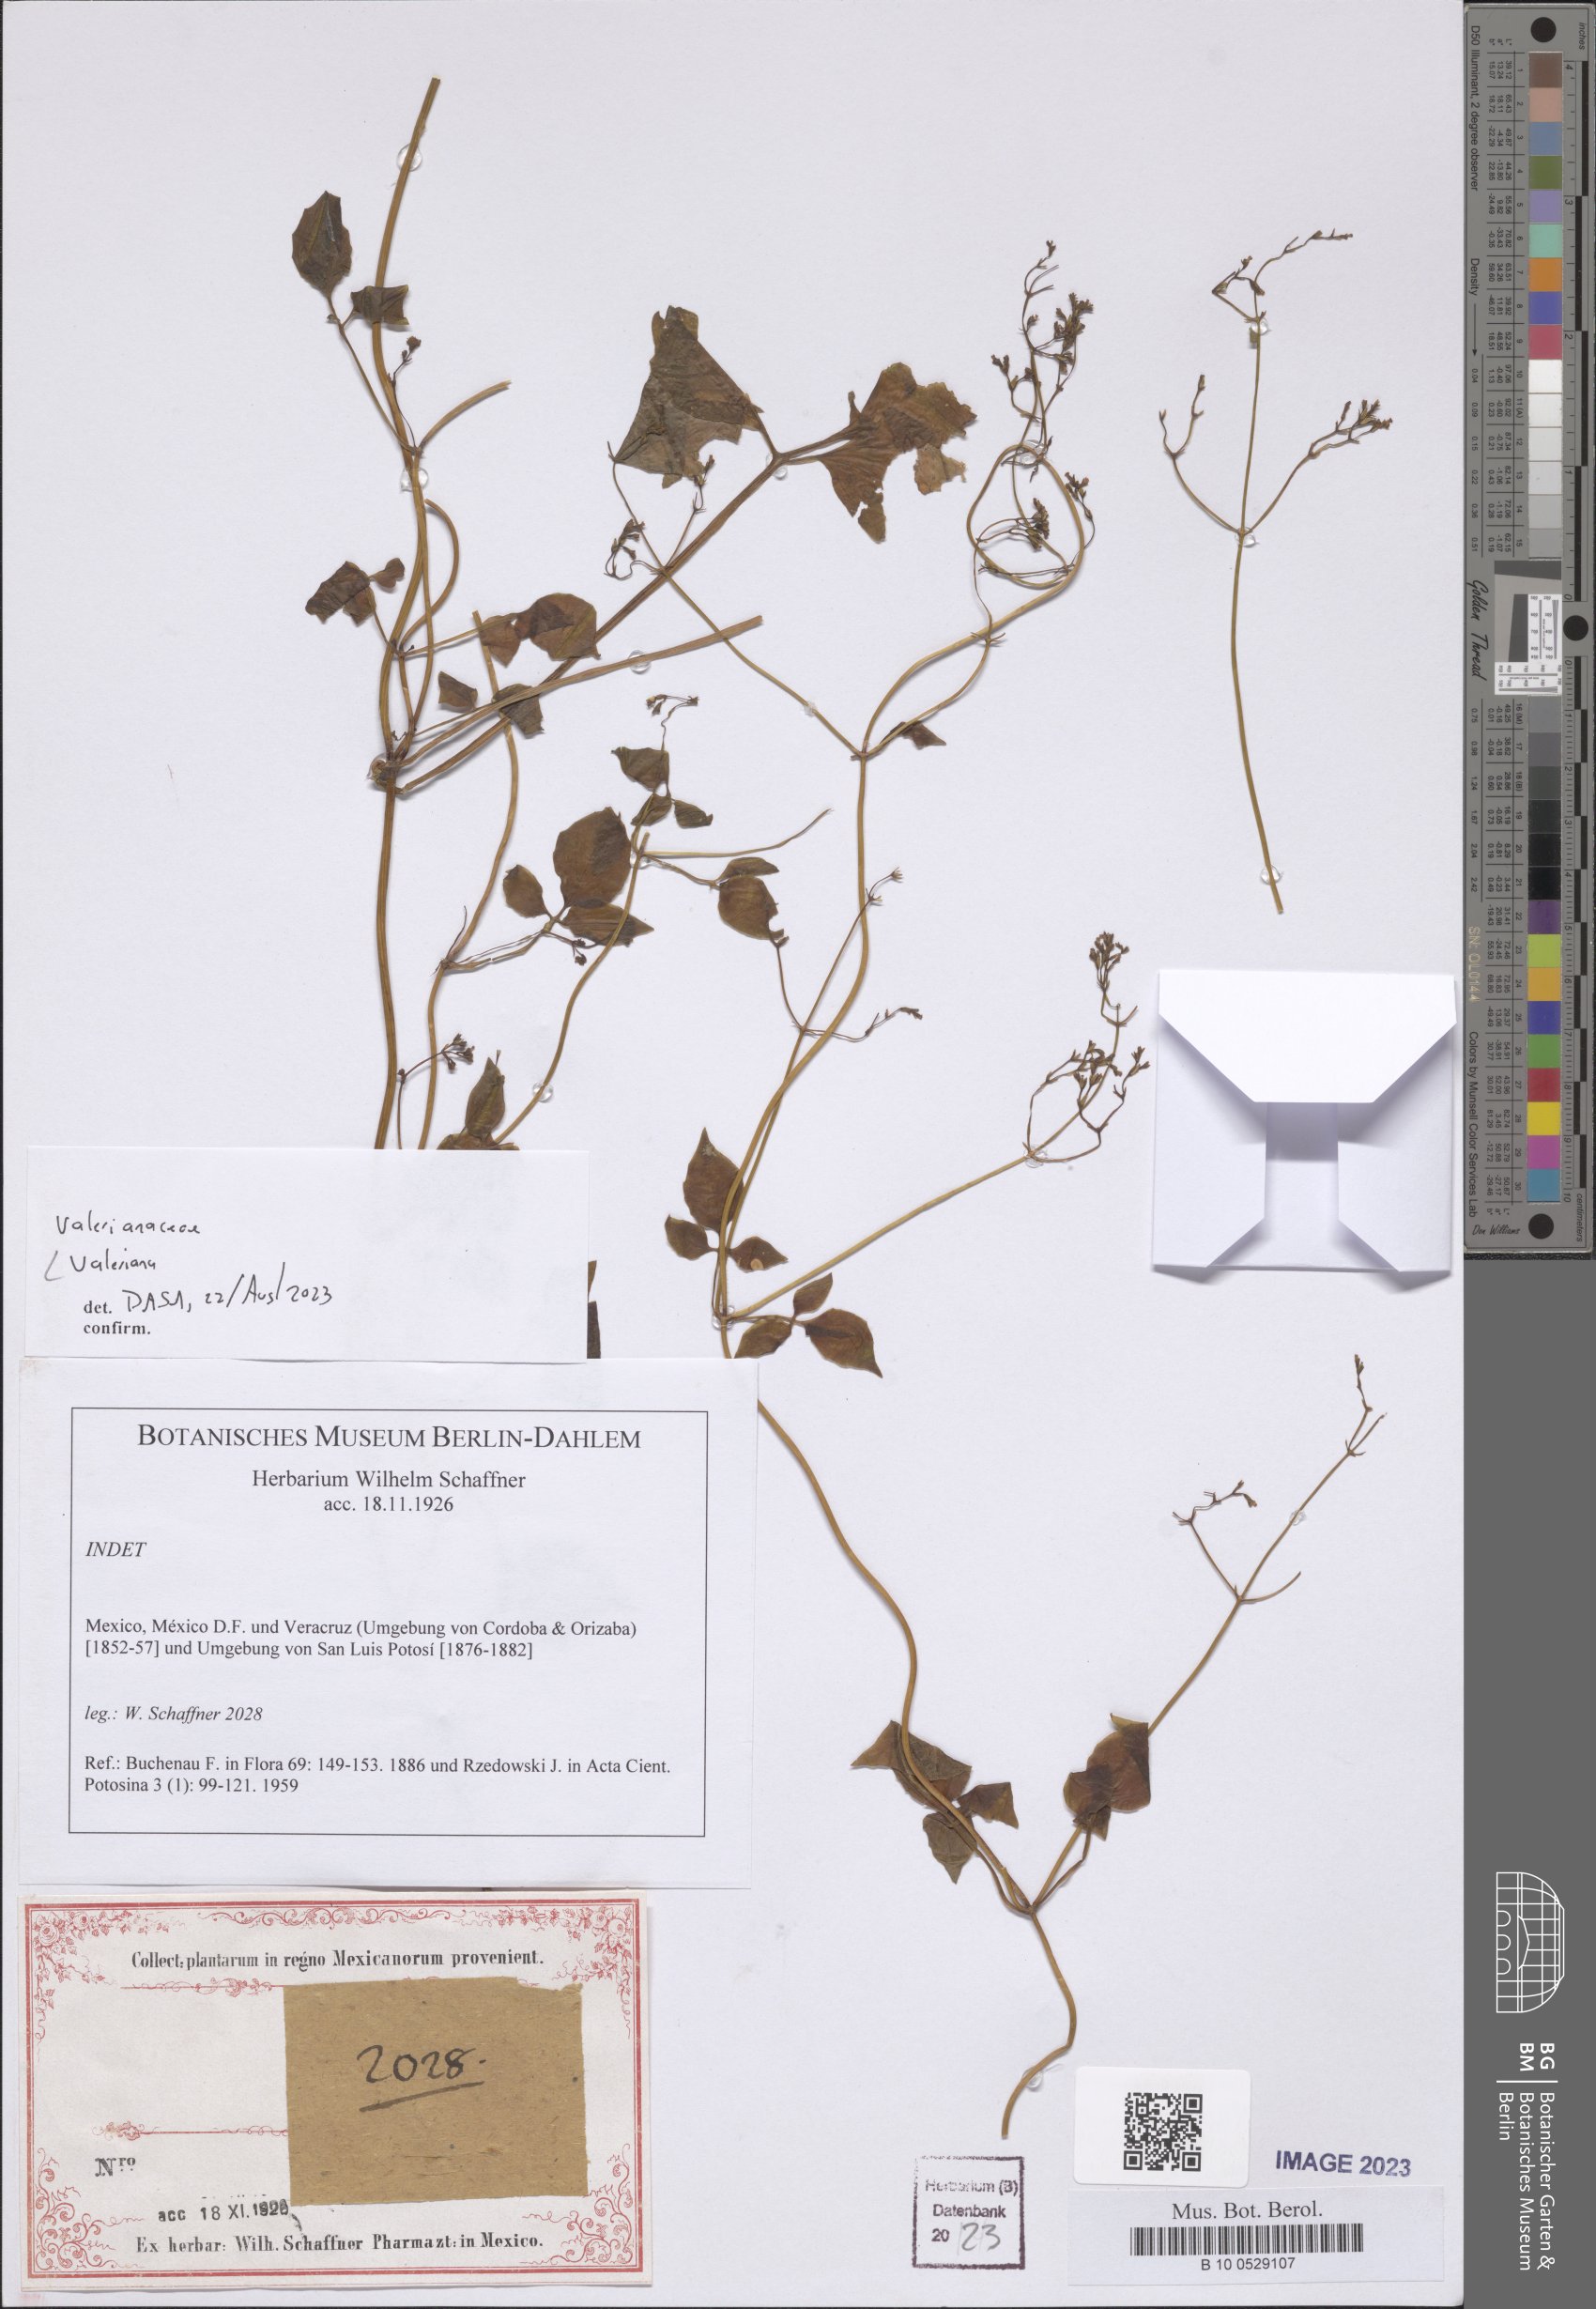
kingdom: Plantae
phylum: Tracheophyta
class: Magnoliopsida
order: Dipsacales
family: Caprifoliaceae
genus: Valeriana
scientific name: Valeriana
